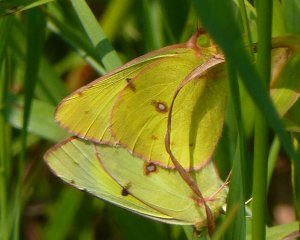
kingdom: Animalia
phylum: Arthropoda
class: Insecta
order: Lepidoptera
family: Pieridae
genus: Colias
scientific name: Colias philodice
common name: Clouded Sulphur
